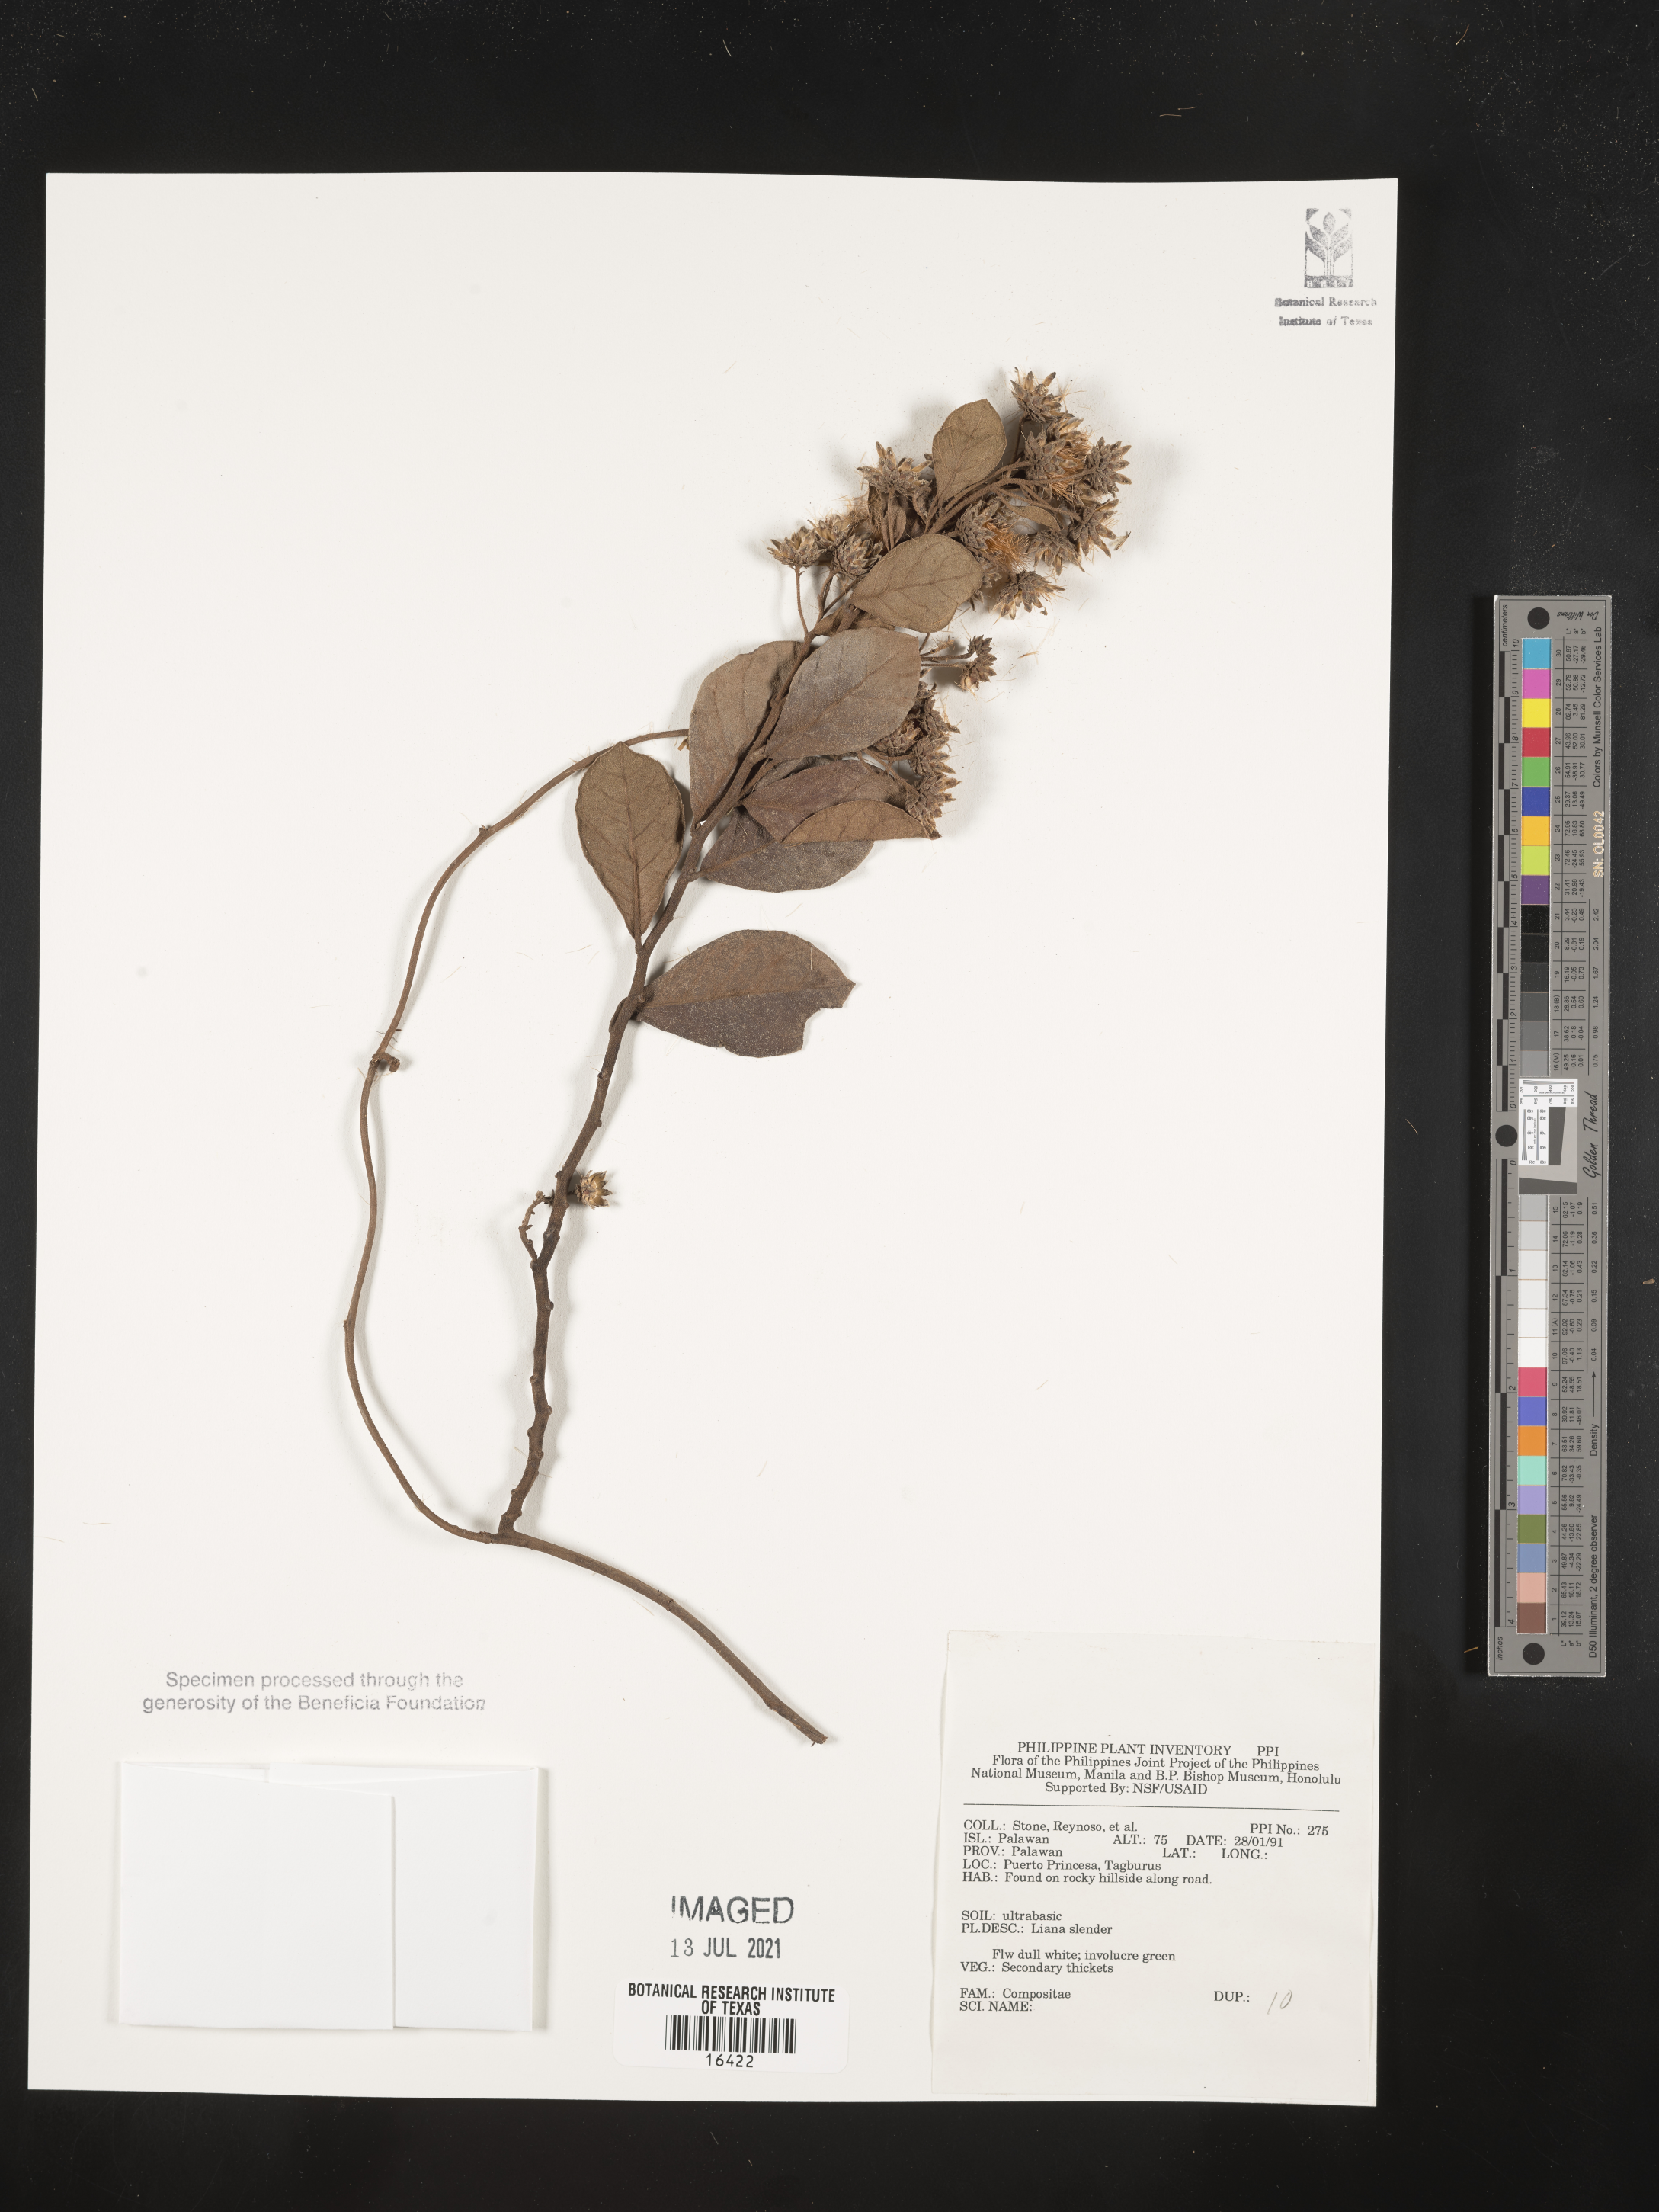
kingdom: Plantae
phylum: Tracheophyta
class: Magnoliopsida
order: Asterales
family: Asteraceae
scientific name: Asteraceae
